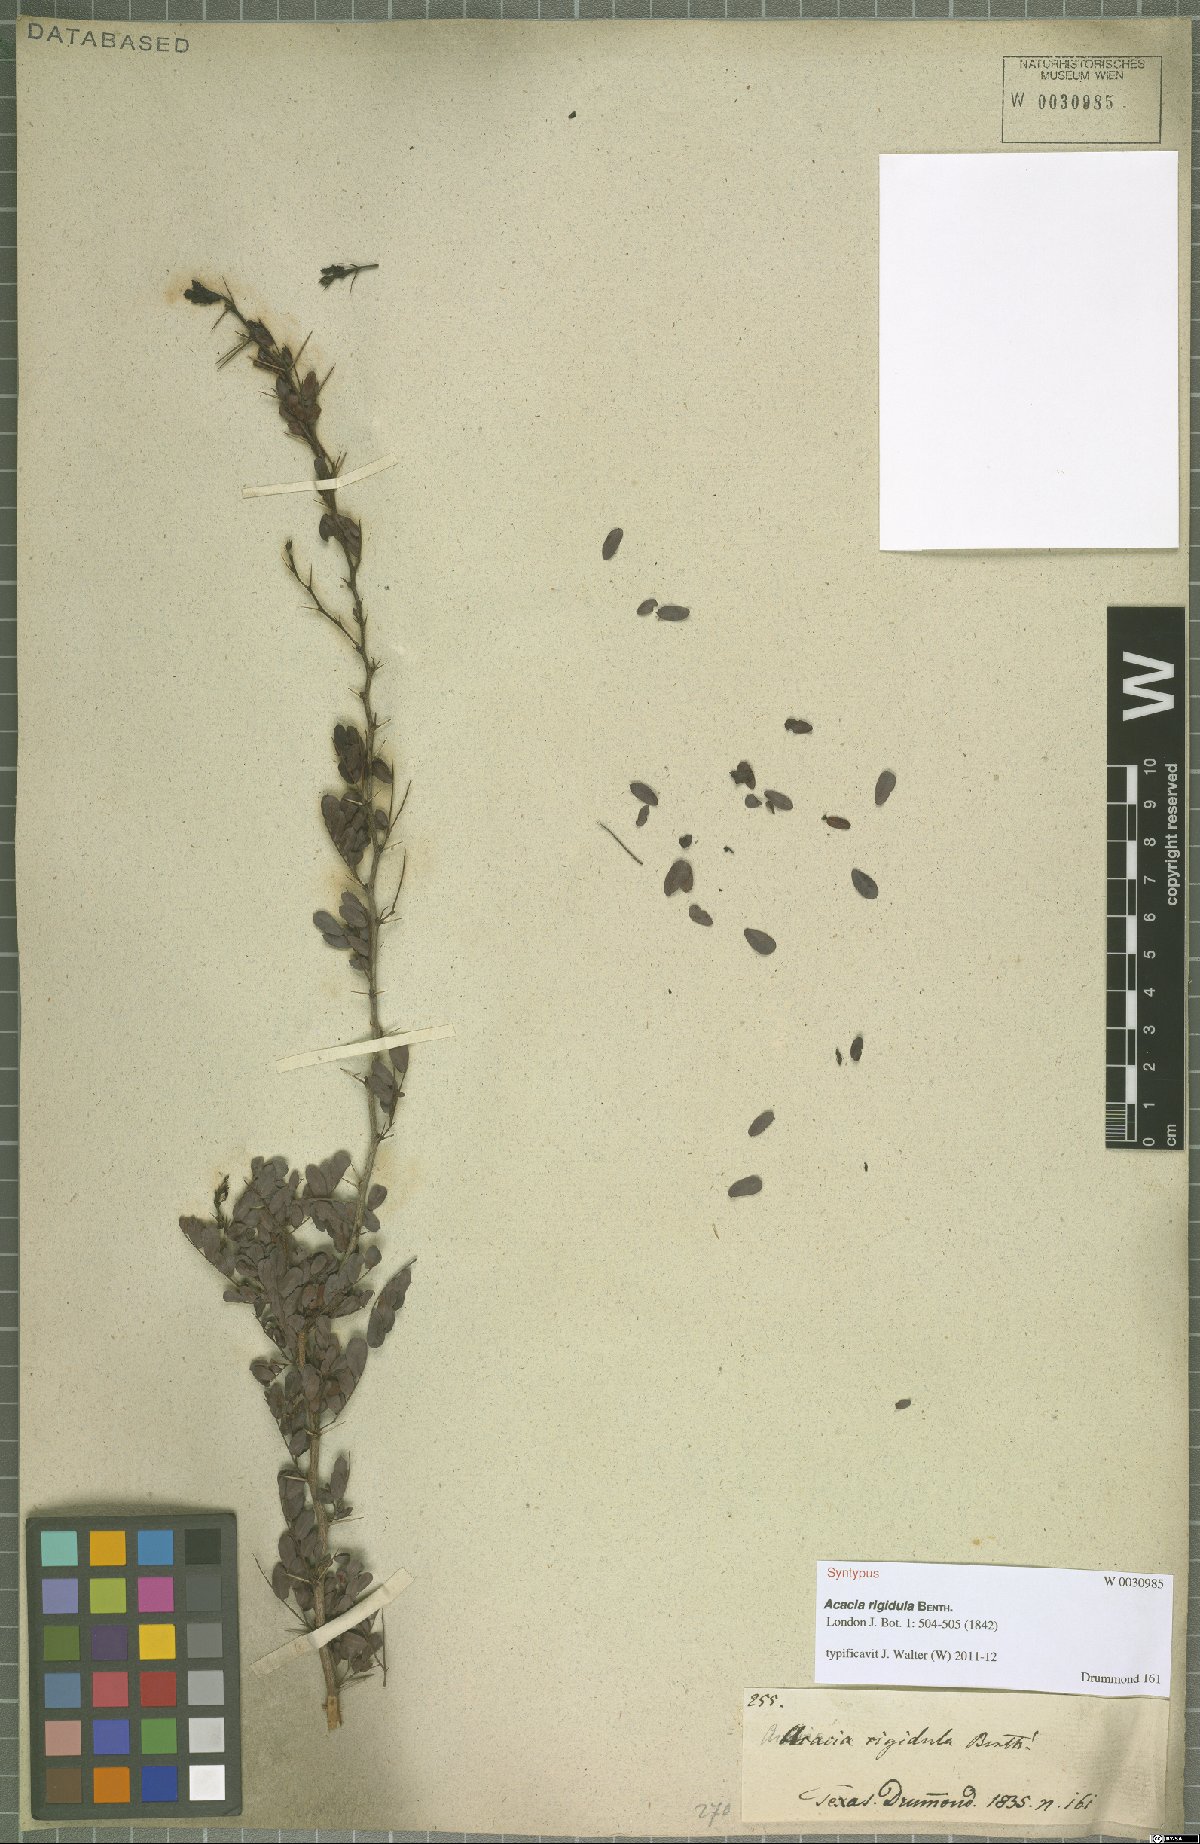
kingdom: Plantae
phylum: Tracheophyta
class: Magnoliopsida
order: Fabales
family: Fabaceae
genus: Vachellia
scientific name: Vachellia rigidula
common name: Blackbrush
